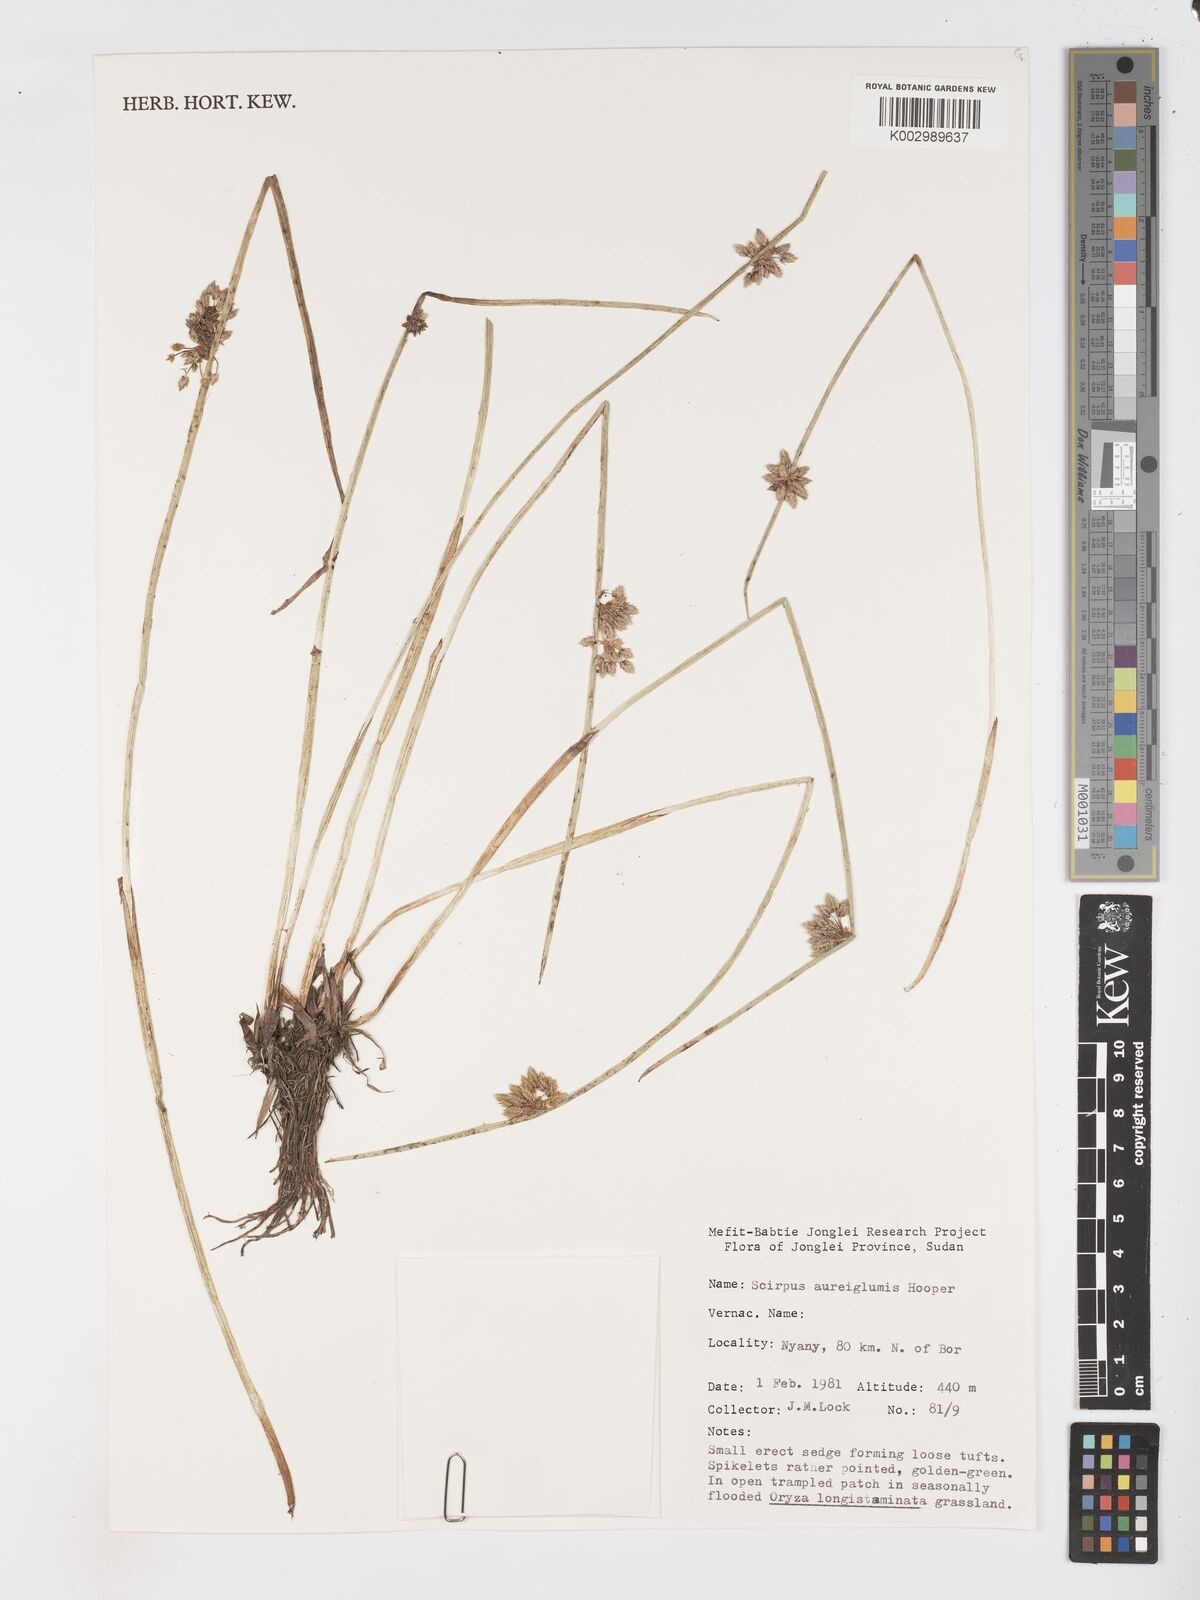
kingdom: Plantae
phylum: Tracheophyta
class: Liliopsida
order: Poales
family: Cyperaceae
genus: Schoenoplectiella
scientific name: Schoenoplectiella juncea
